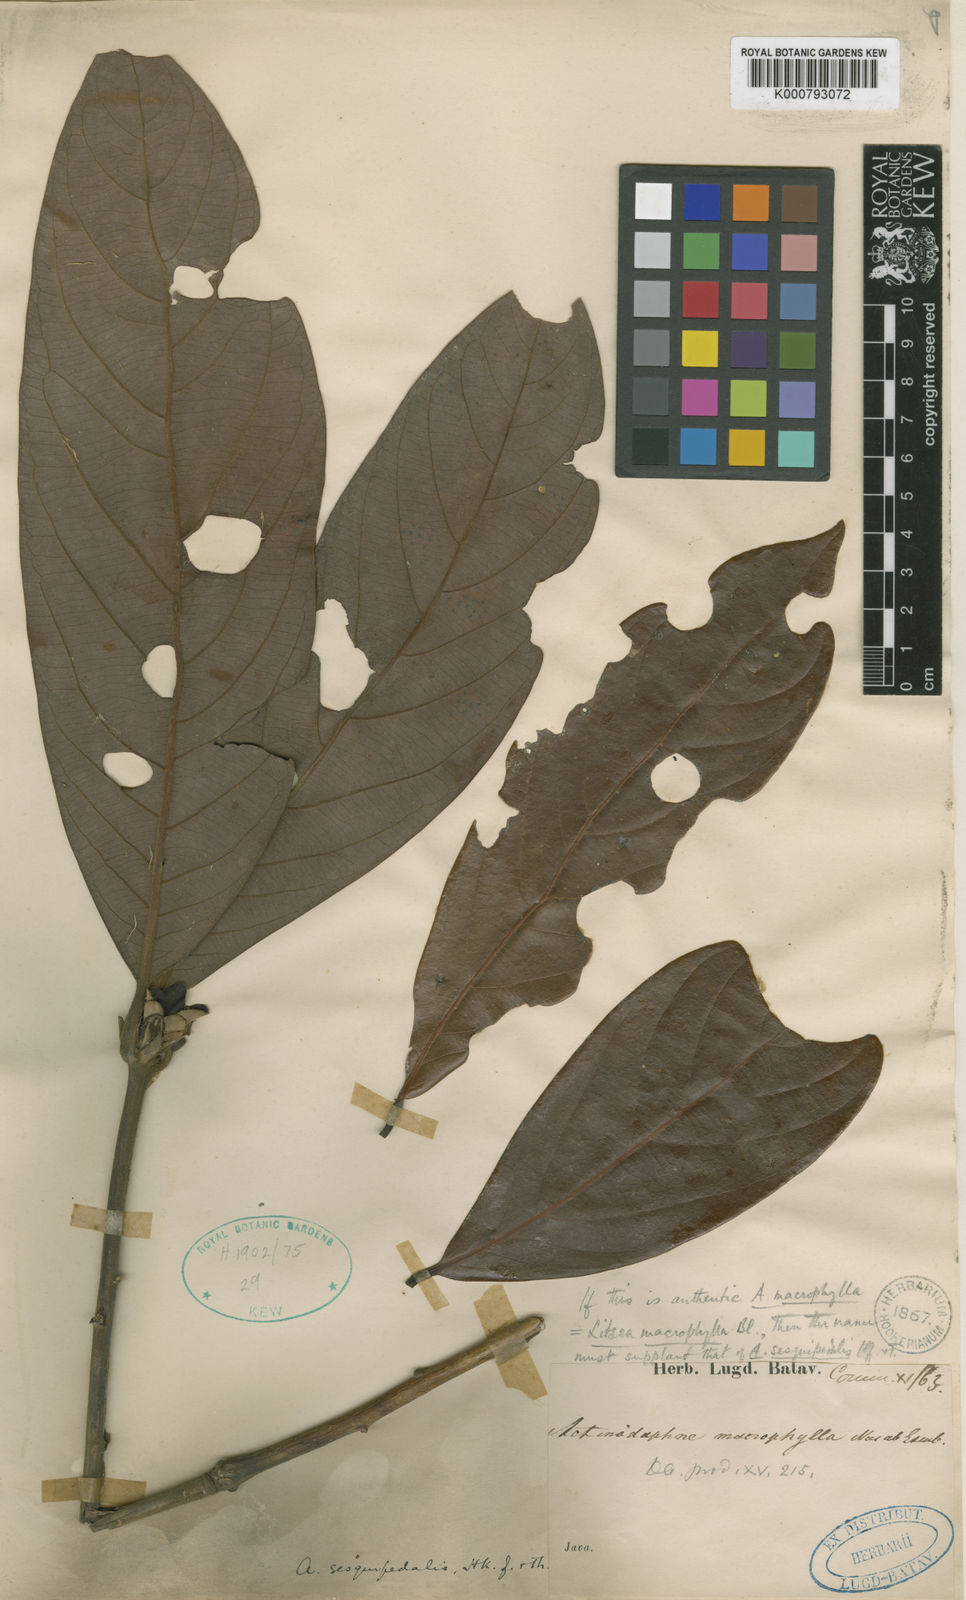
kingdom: Plantae
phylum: Tracheophyta
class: Magnoliopsida
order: Laurales
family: Lauraceae
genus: Actinodaphne
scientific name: Actinodaphne
